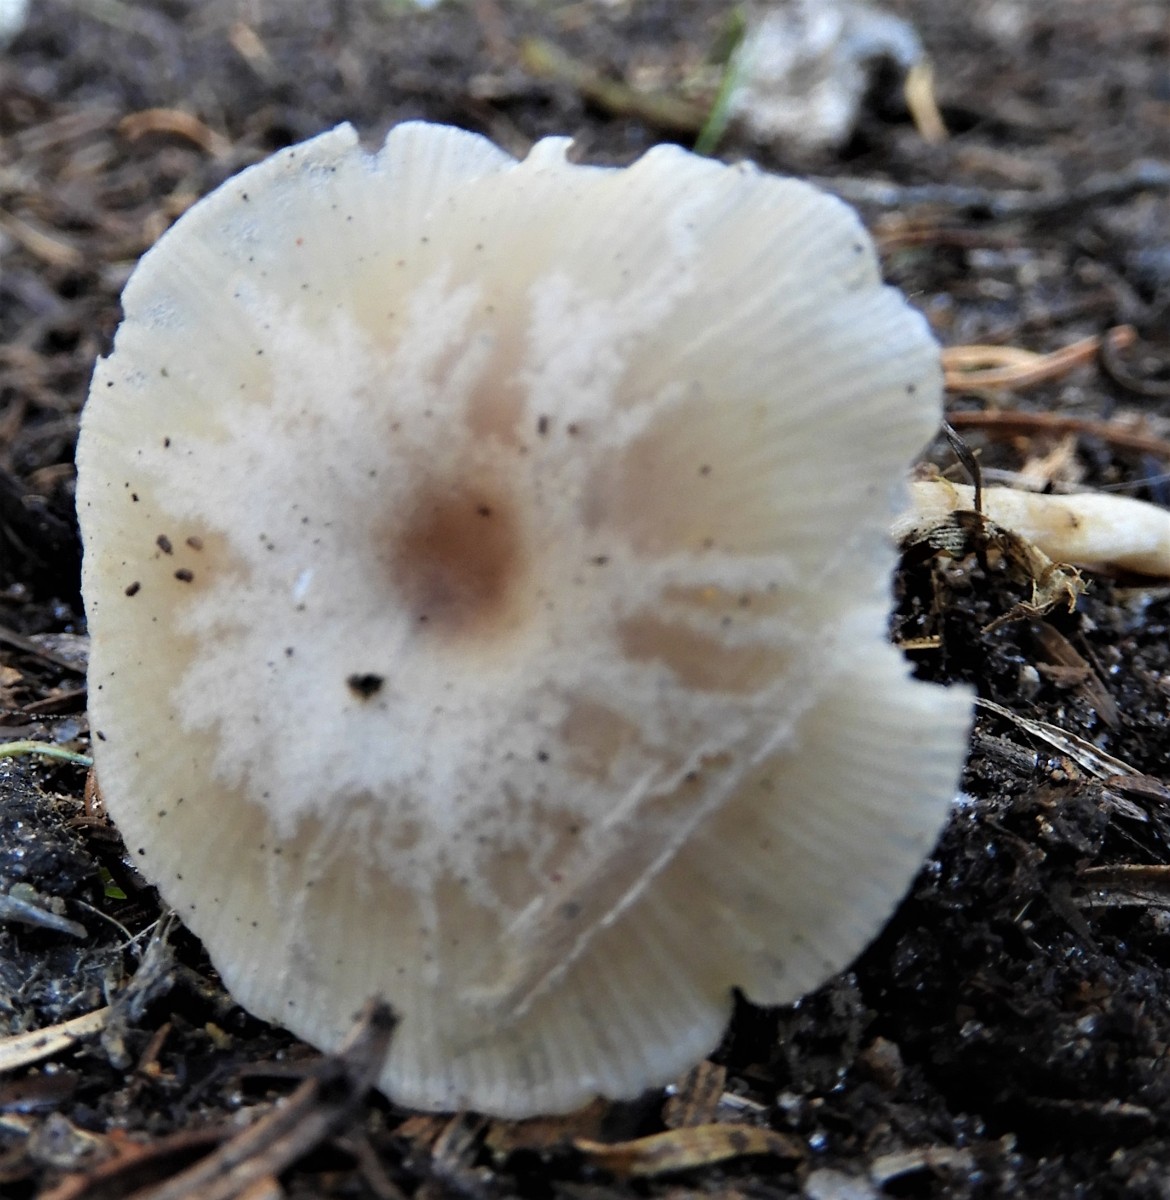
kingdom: Fungi
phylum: Basidiomycota
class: Agaricomycetes
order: Agaricales
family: Tricholomataceae
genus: Clitocybe
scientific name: Clitocybe fragrans
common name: vellugtende tragthat
